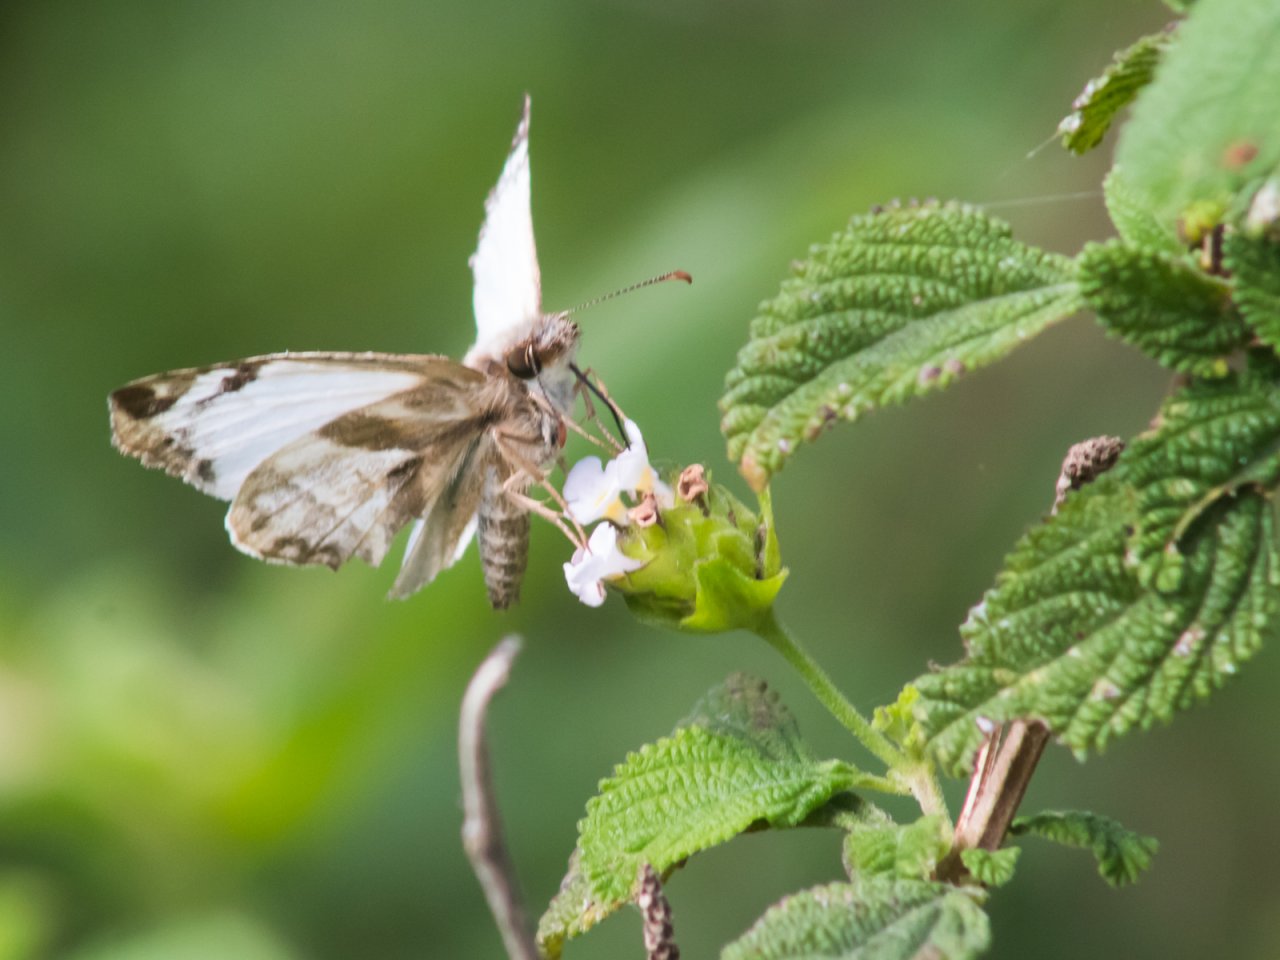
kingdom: Animalia
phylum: Arthropoda
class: Insecta
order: Lepidoptera
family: Hesperiidae
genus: Heliopetes
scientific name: Heliopetes laviana
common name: Laviana White-Skipper
